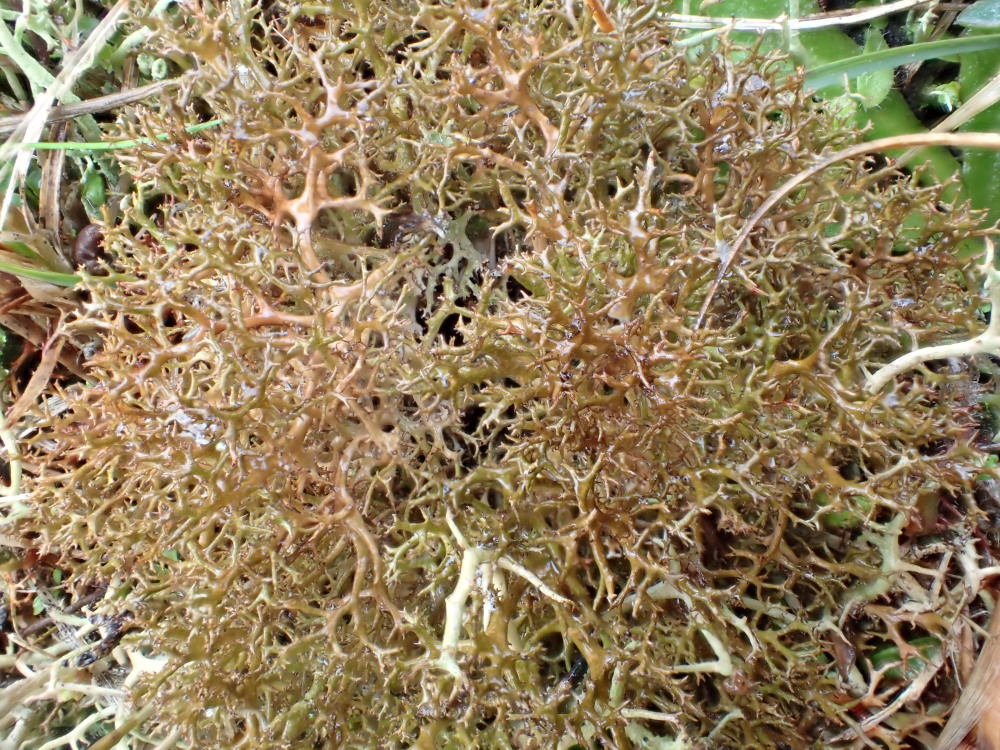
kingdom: Fungi
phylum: Ascomycota
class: Lecanoromycetes
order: Lecanorales
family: Parmeliaceae
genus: Cetraria
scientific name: Cetraria muricata
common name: tue-tjørnelav
